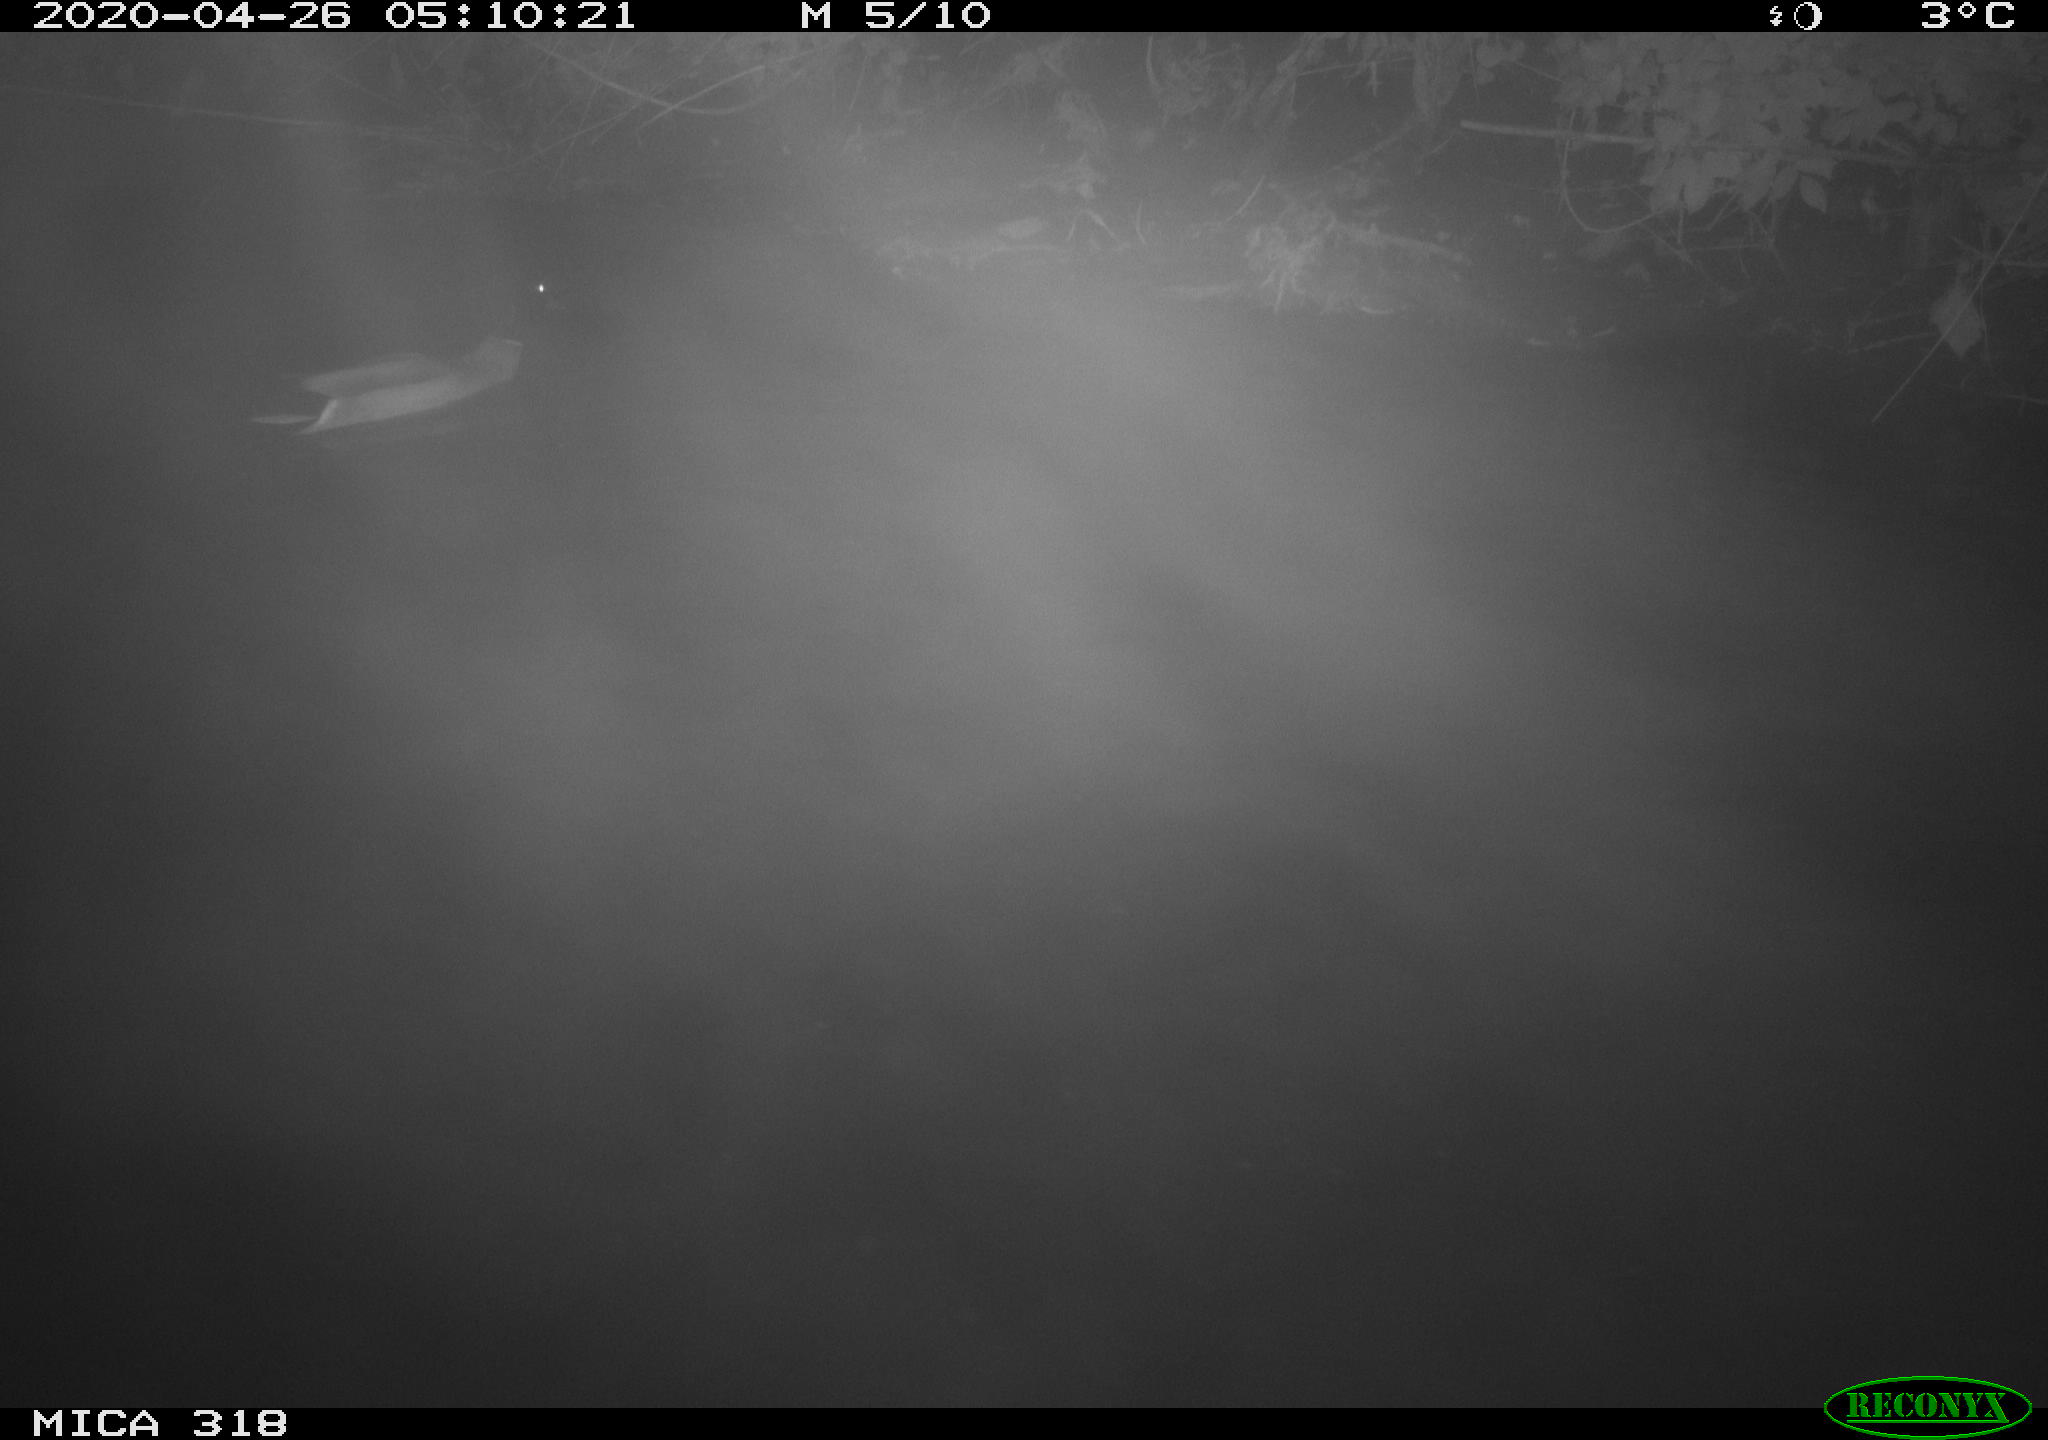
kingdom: Animalia
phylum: Chordata
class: Aves
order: Anseriformes
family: Anatidae
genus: Anas
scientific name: Anas platyrhynchos
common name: Mallard
